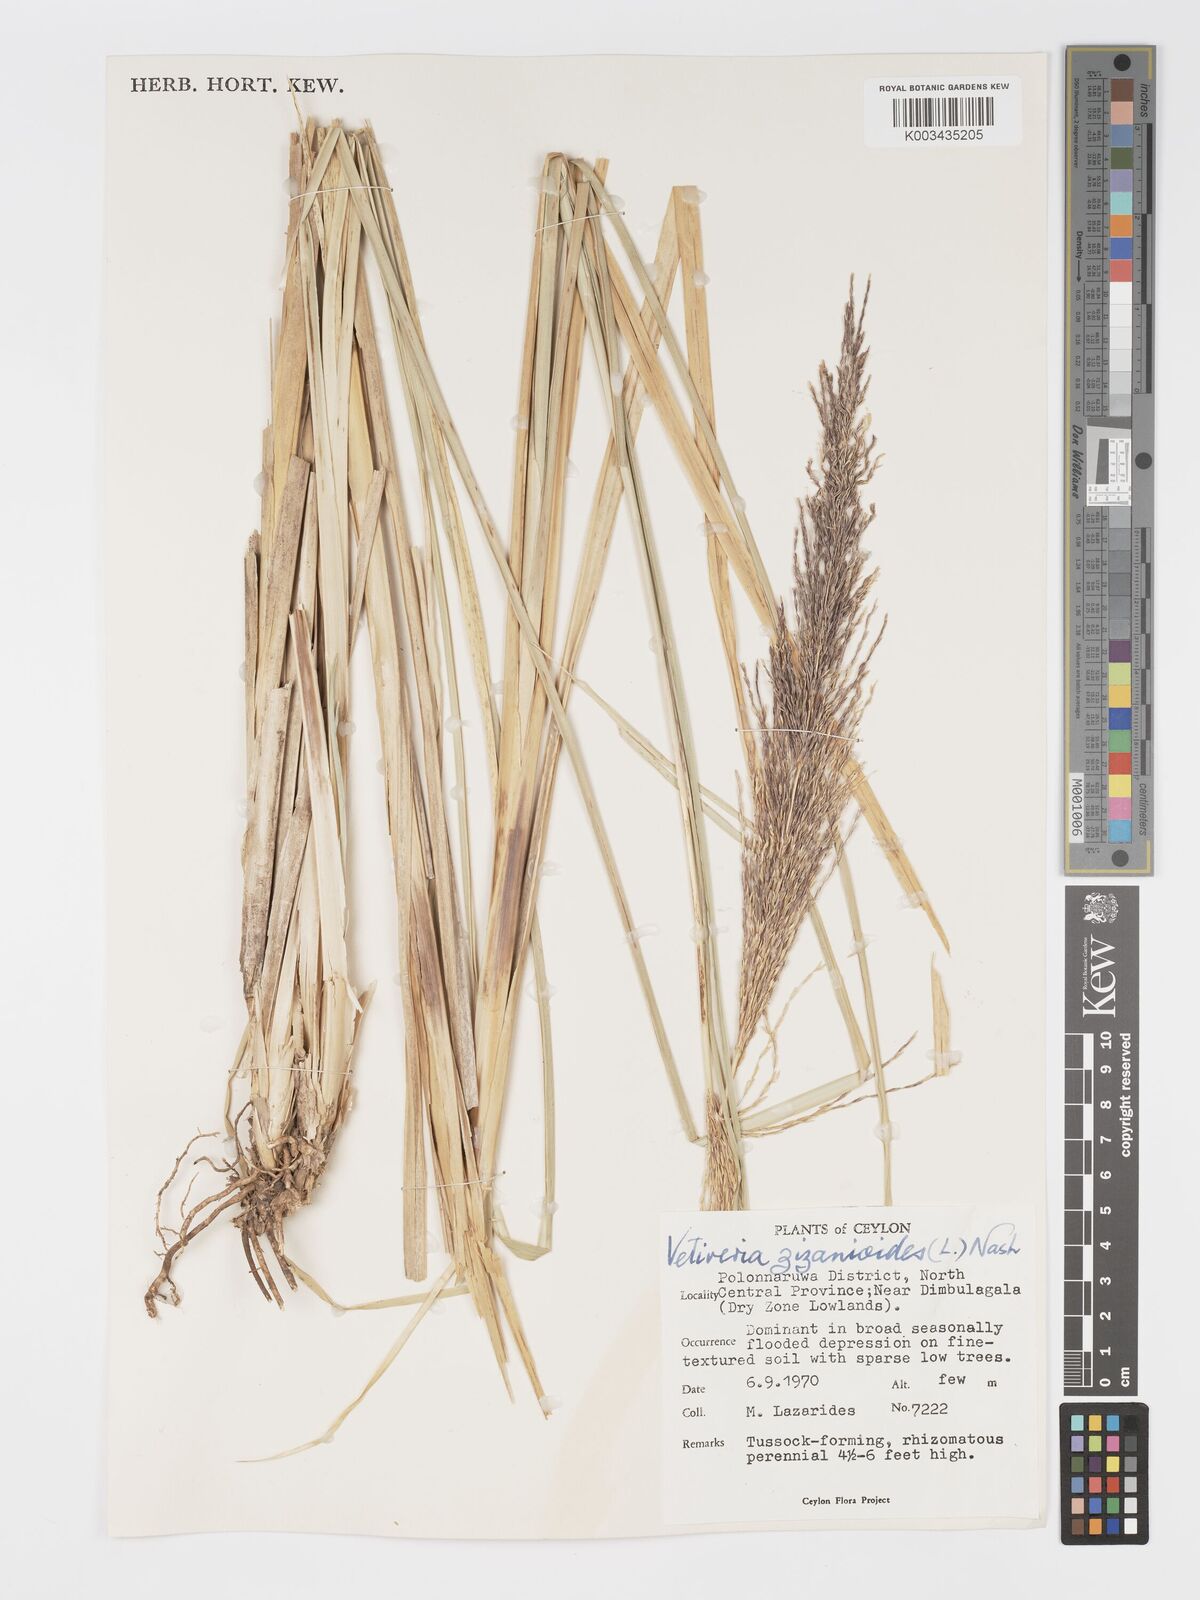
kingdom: Plantae
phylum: Tracheophyta
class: Liliopsida
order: Poales
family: Poaceae
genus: Chrysopogon
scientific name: Chrysopogon zizanioides
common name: False beardgrass
